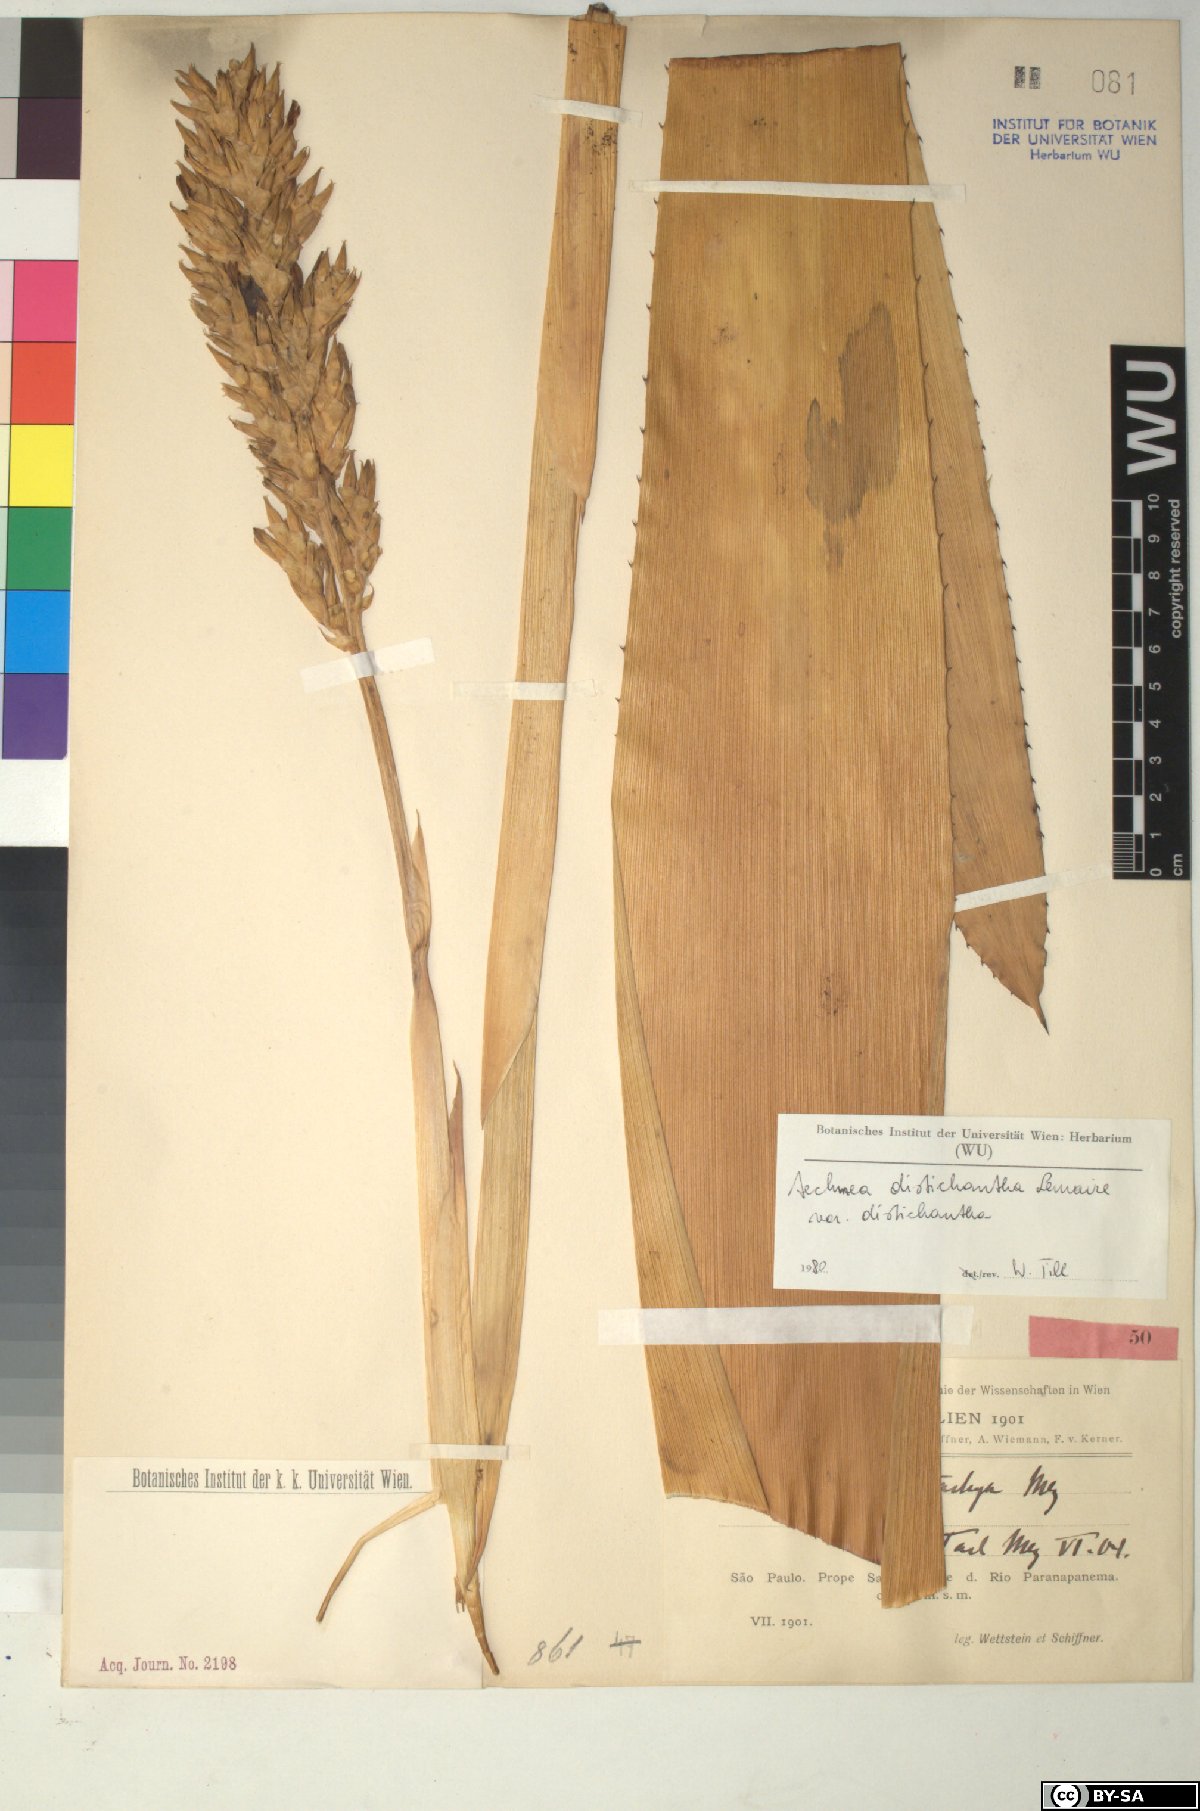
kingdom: Plantae
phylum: Tracheophyta
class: Liliopsida
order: Poales
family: Bromeliaceae
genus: Aechmea
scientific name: Aechmea
